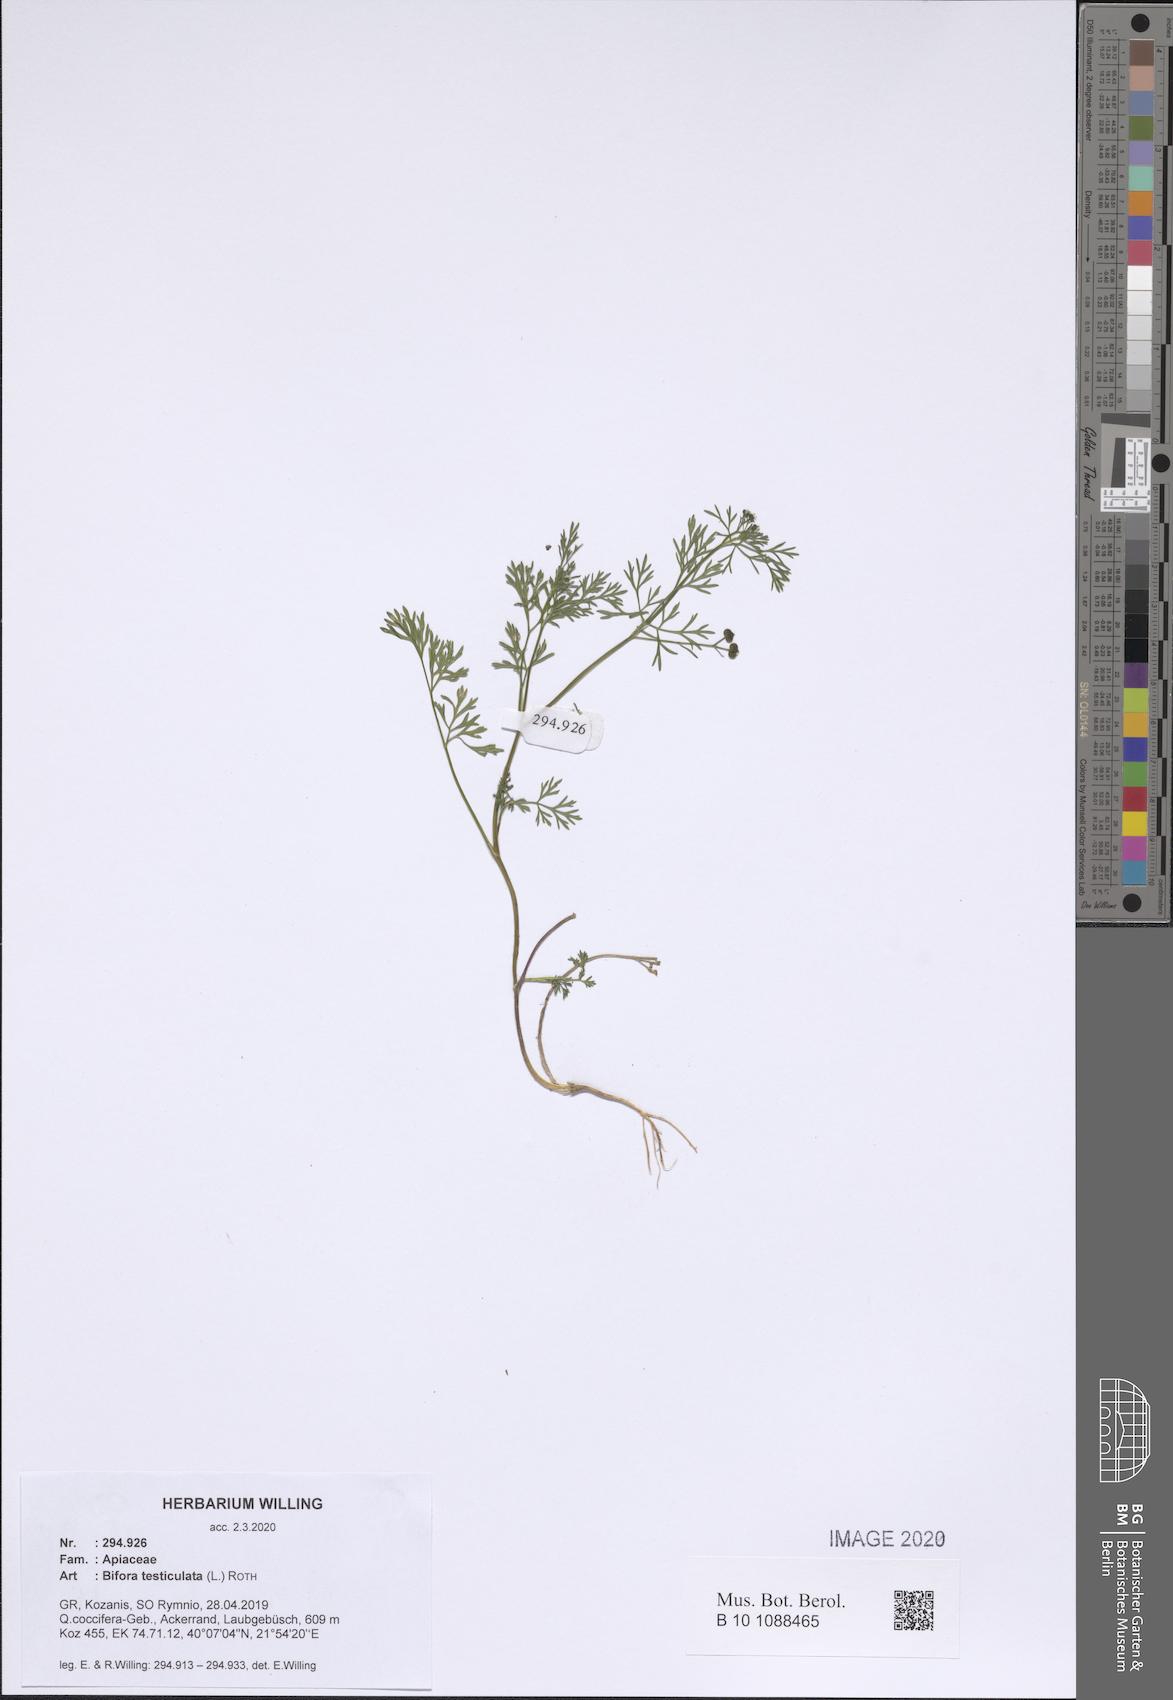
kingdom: Plantae
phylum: Tracheophyta
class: Magnoliopsida
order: Apiales
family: Apiaceae
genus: Bifora
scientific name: Bifora testiculata
